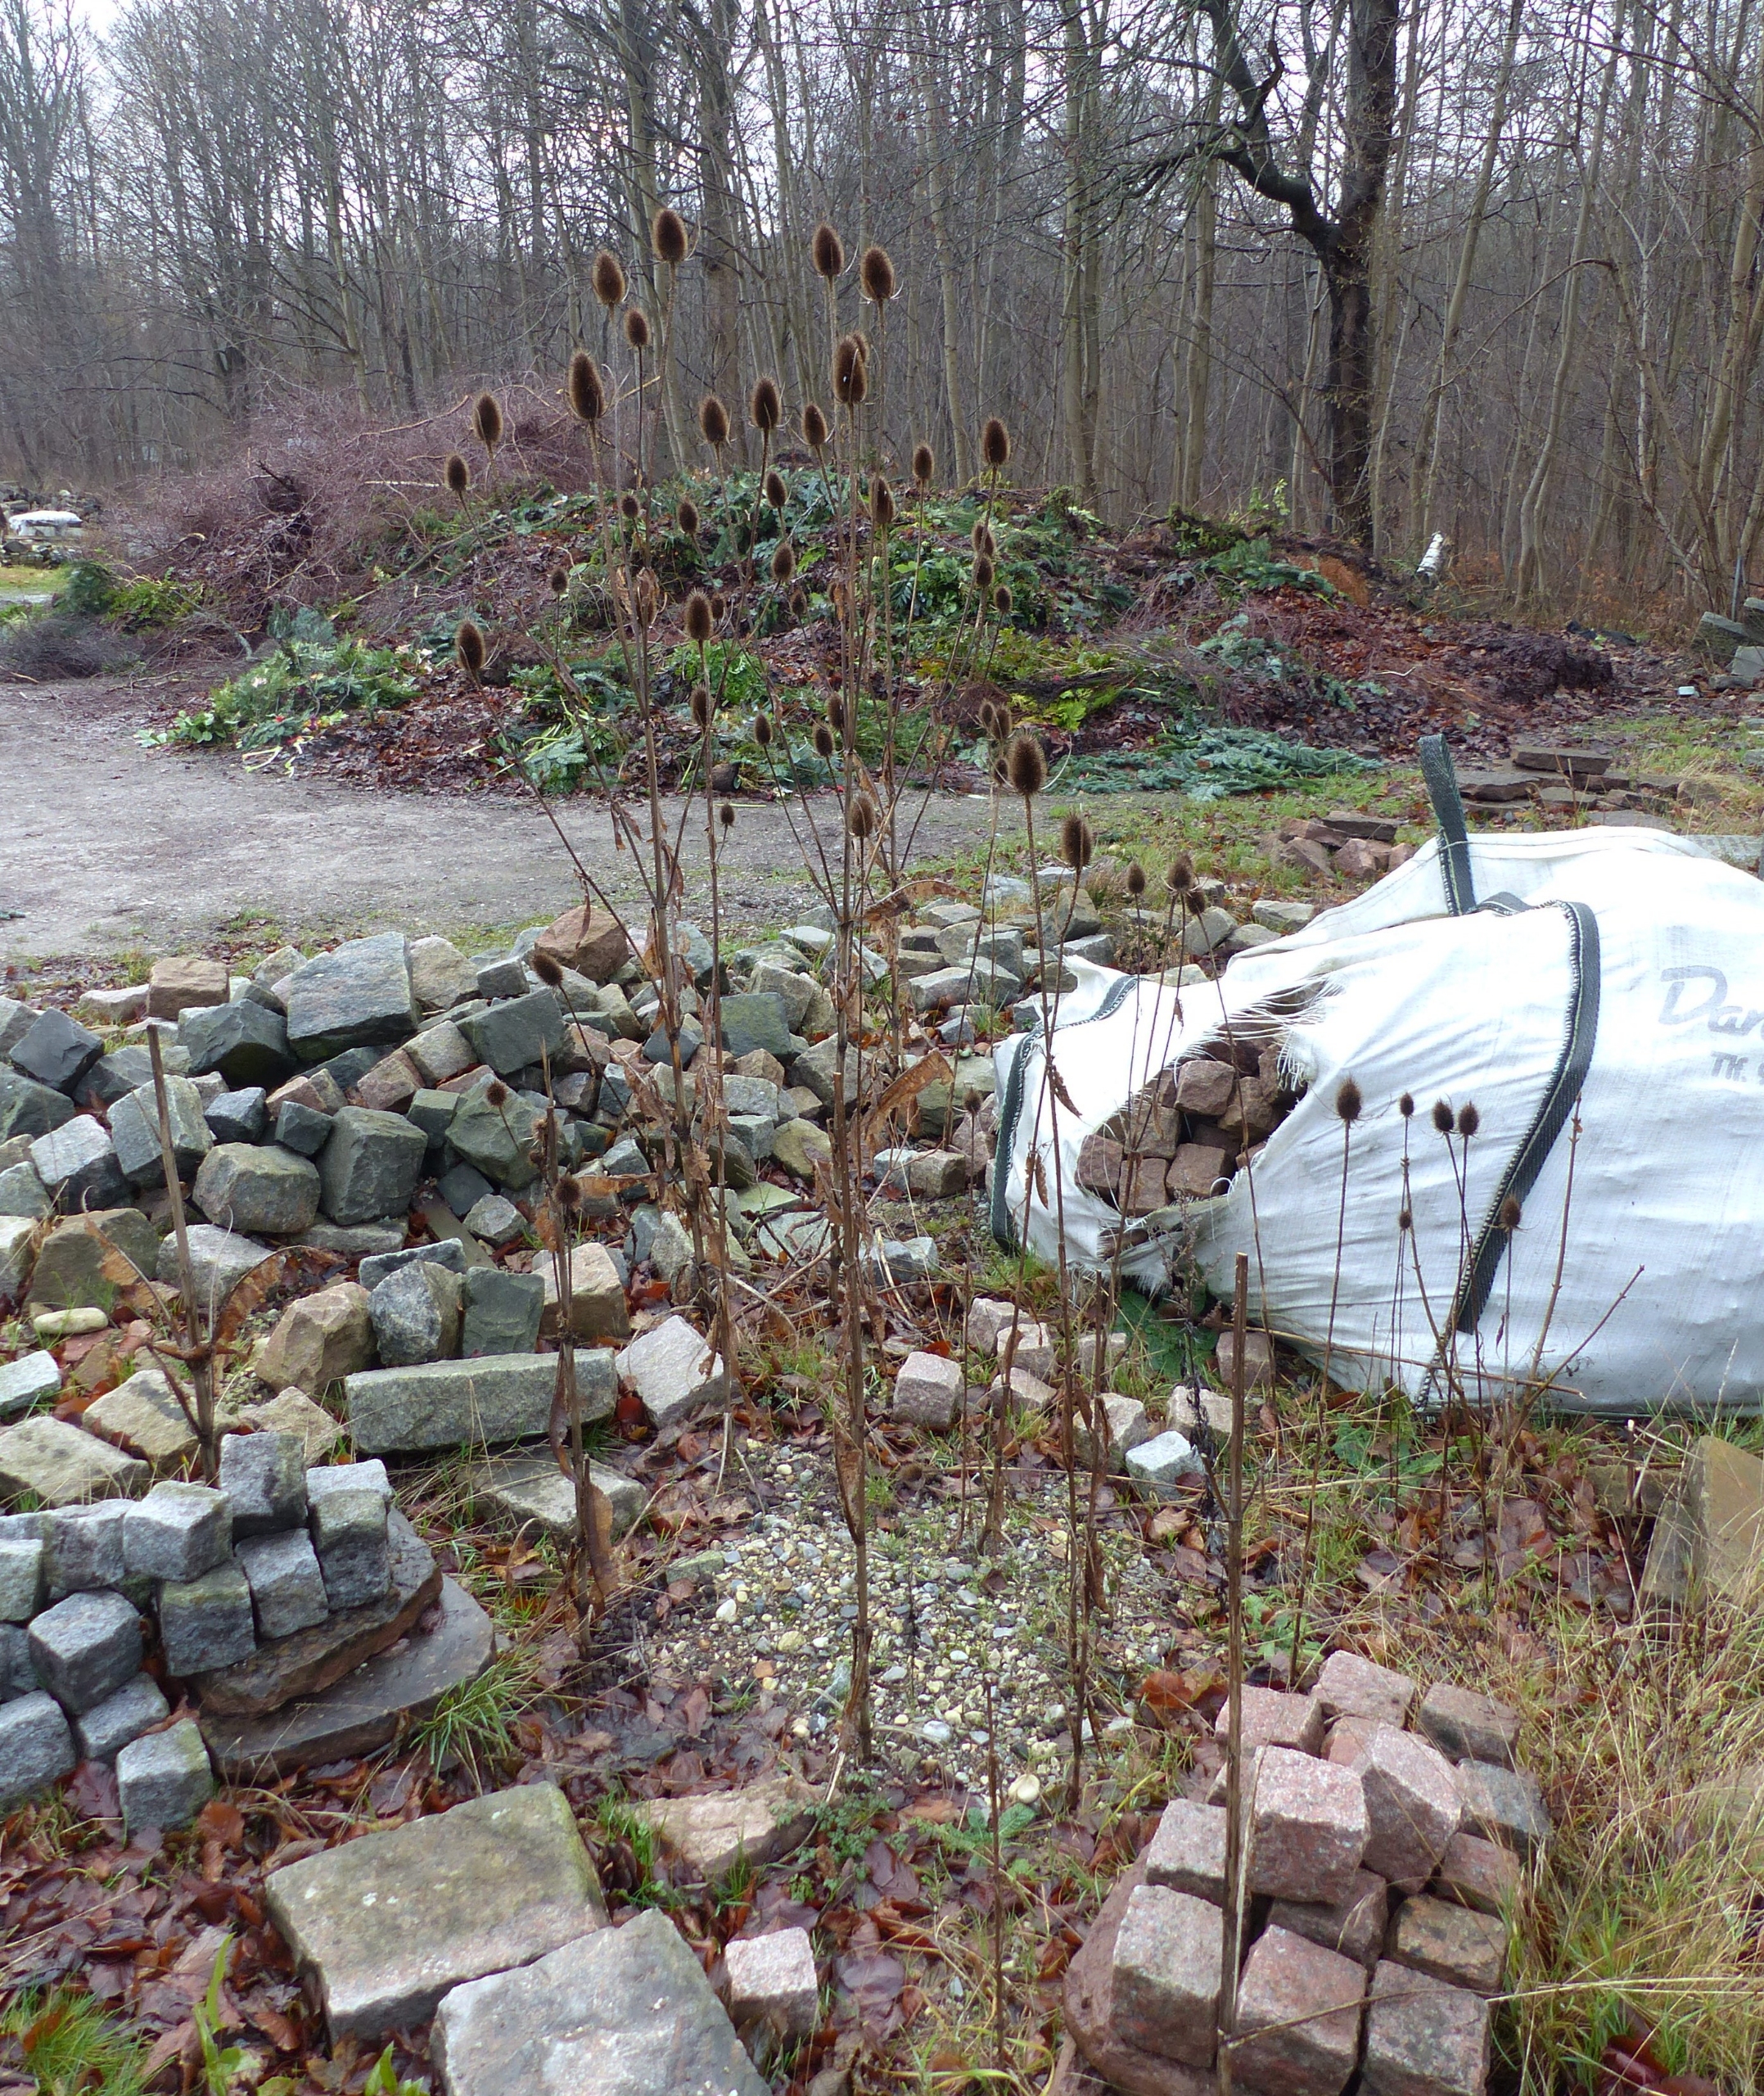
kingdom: Plantae
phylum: Tracheophyta
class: Magnoliopsida
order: Dipsacales
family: Caprifoliaceae
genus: Dipsacus
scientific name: Dipsacus fullonum
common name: Gærde-kartebolle
